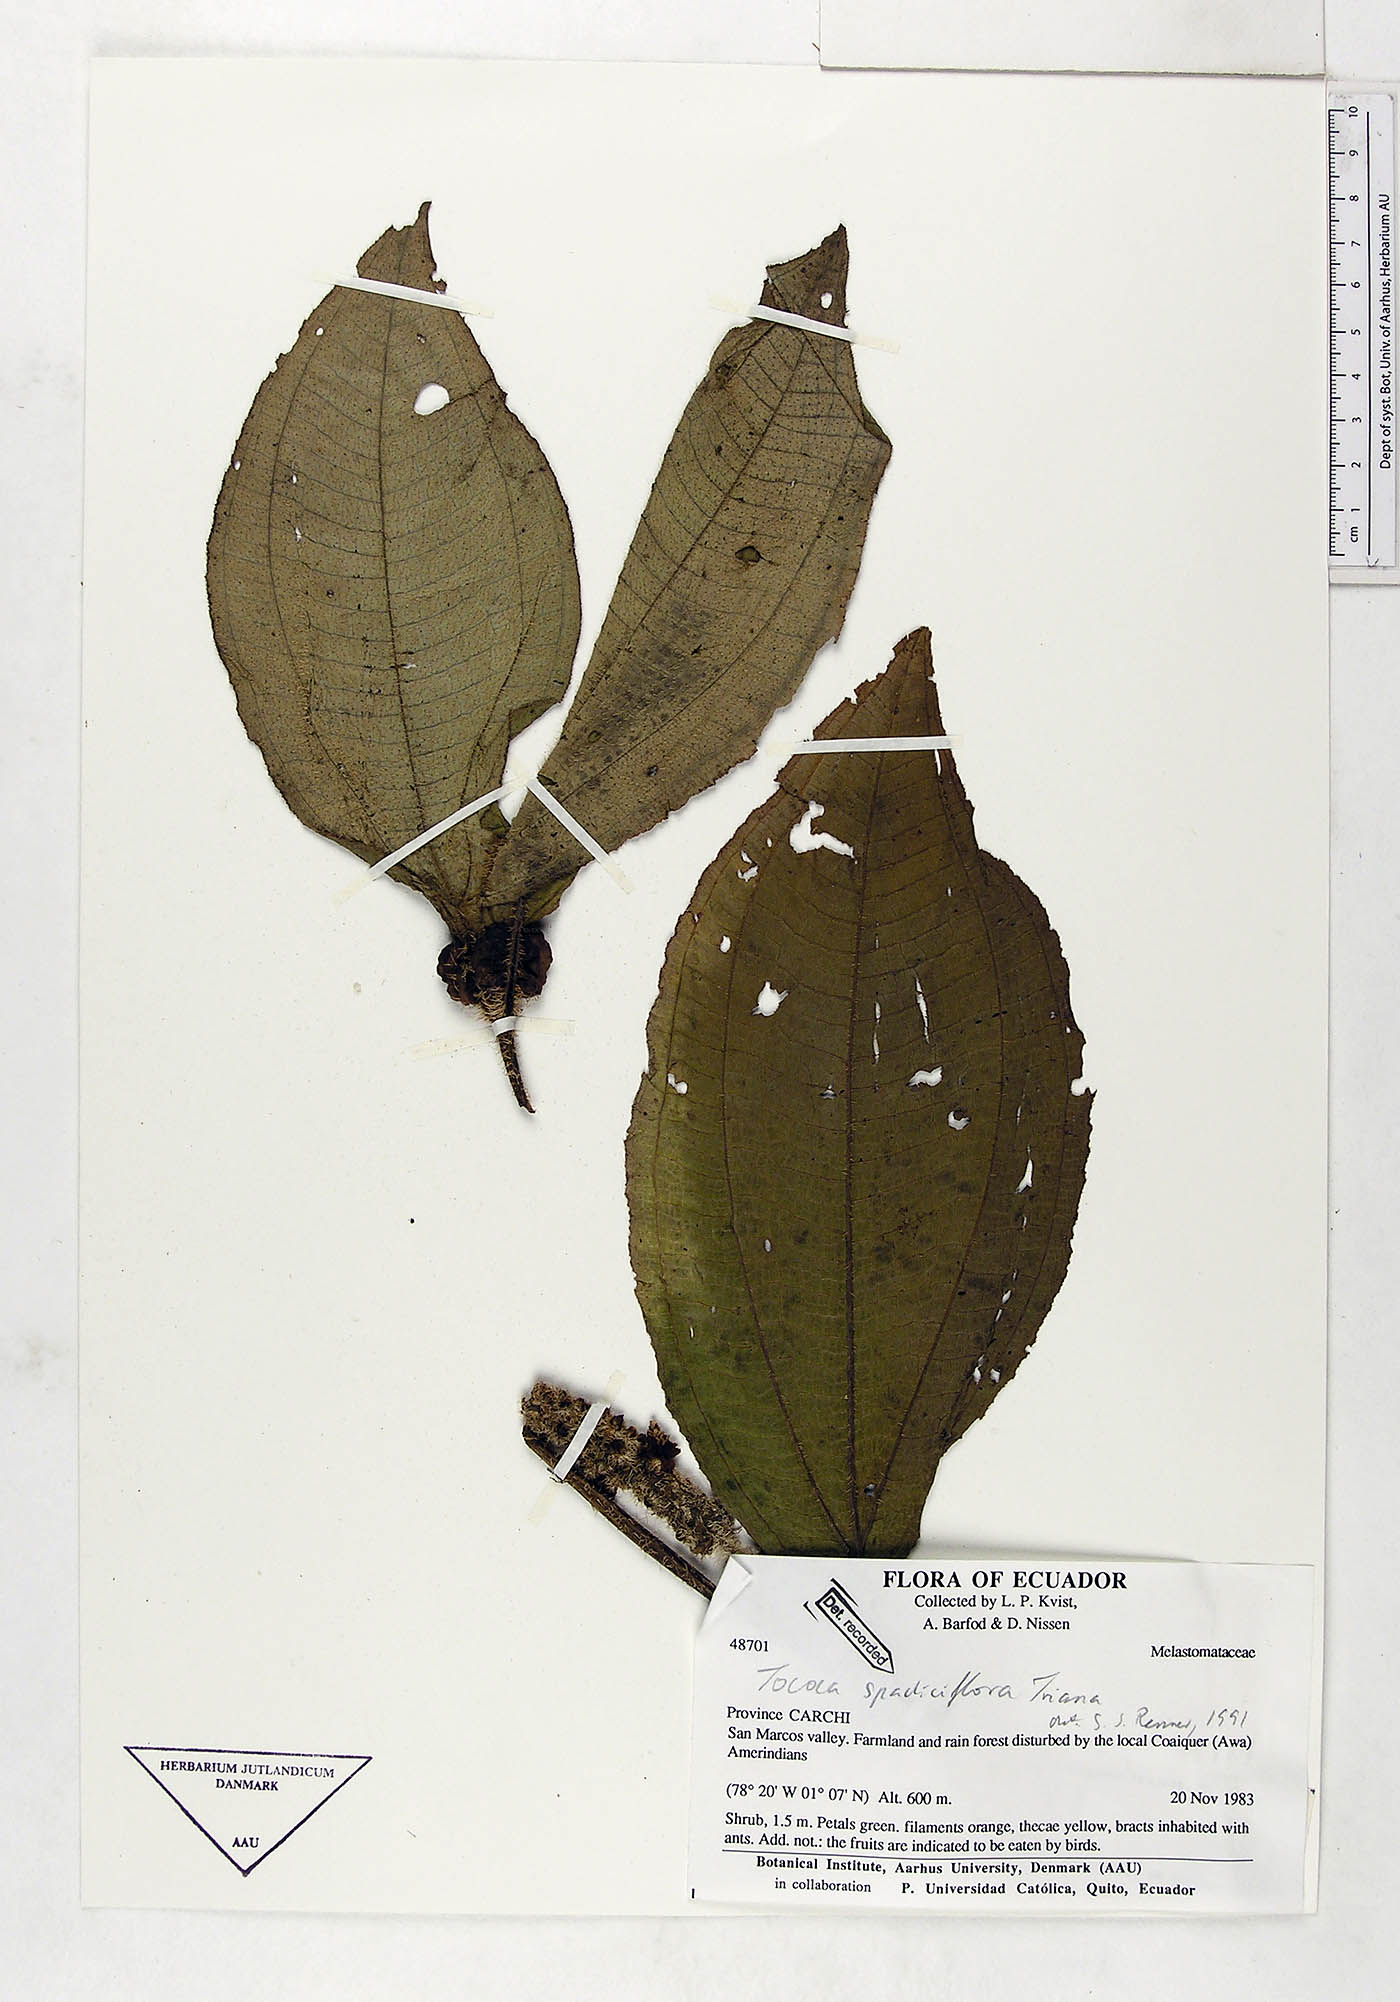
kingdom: Plantae
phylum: Tracheophyta
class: Magnoliopsida
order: Myrtales
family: Melastomataceae
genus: Miconia
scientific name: Miconia spadiciflora
